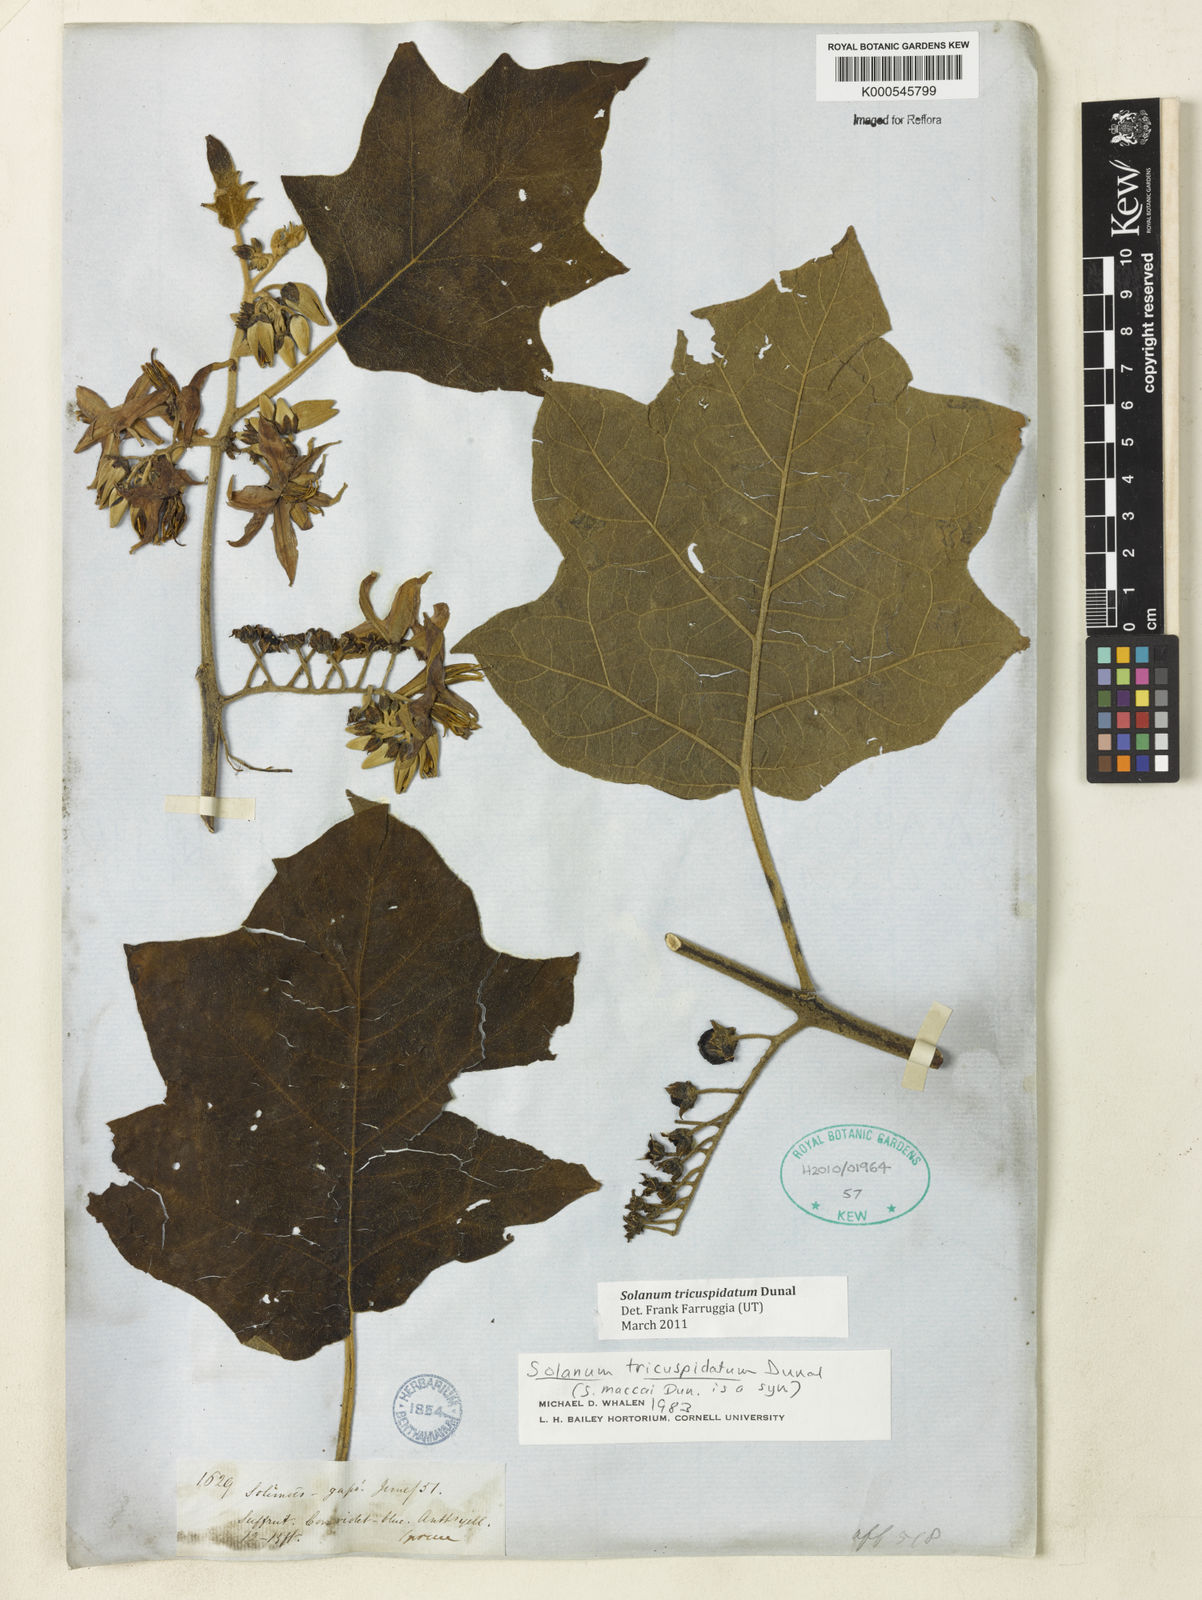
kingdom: Plantae
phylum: Tracheophyta
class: Magnoliopsida
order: Solanales
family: Solanaceae
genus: Solanum
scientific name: Solanum tricuspidatum
